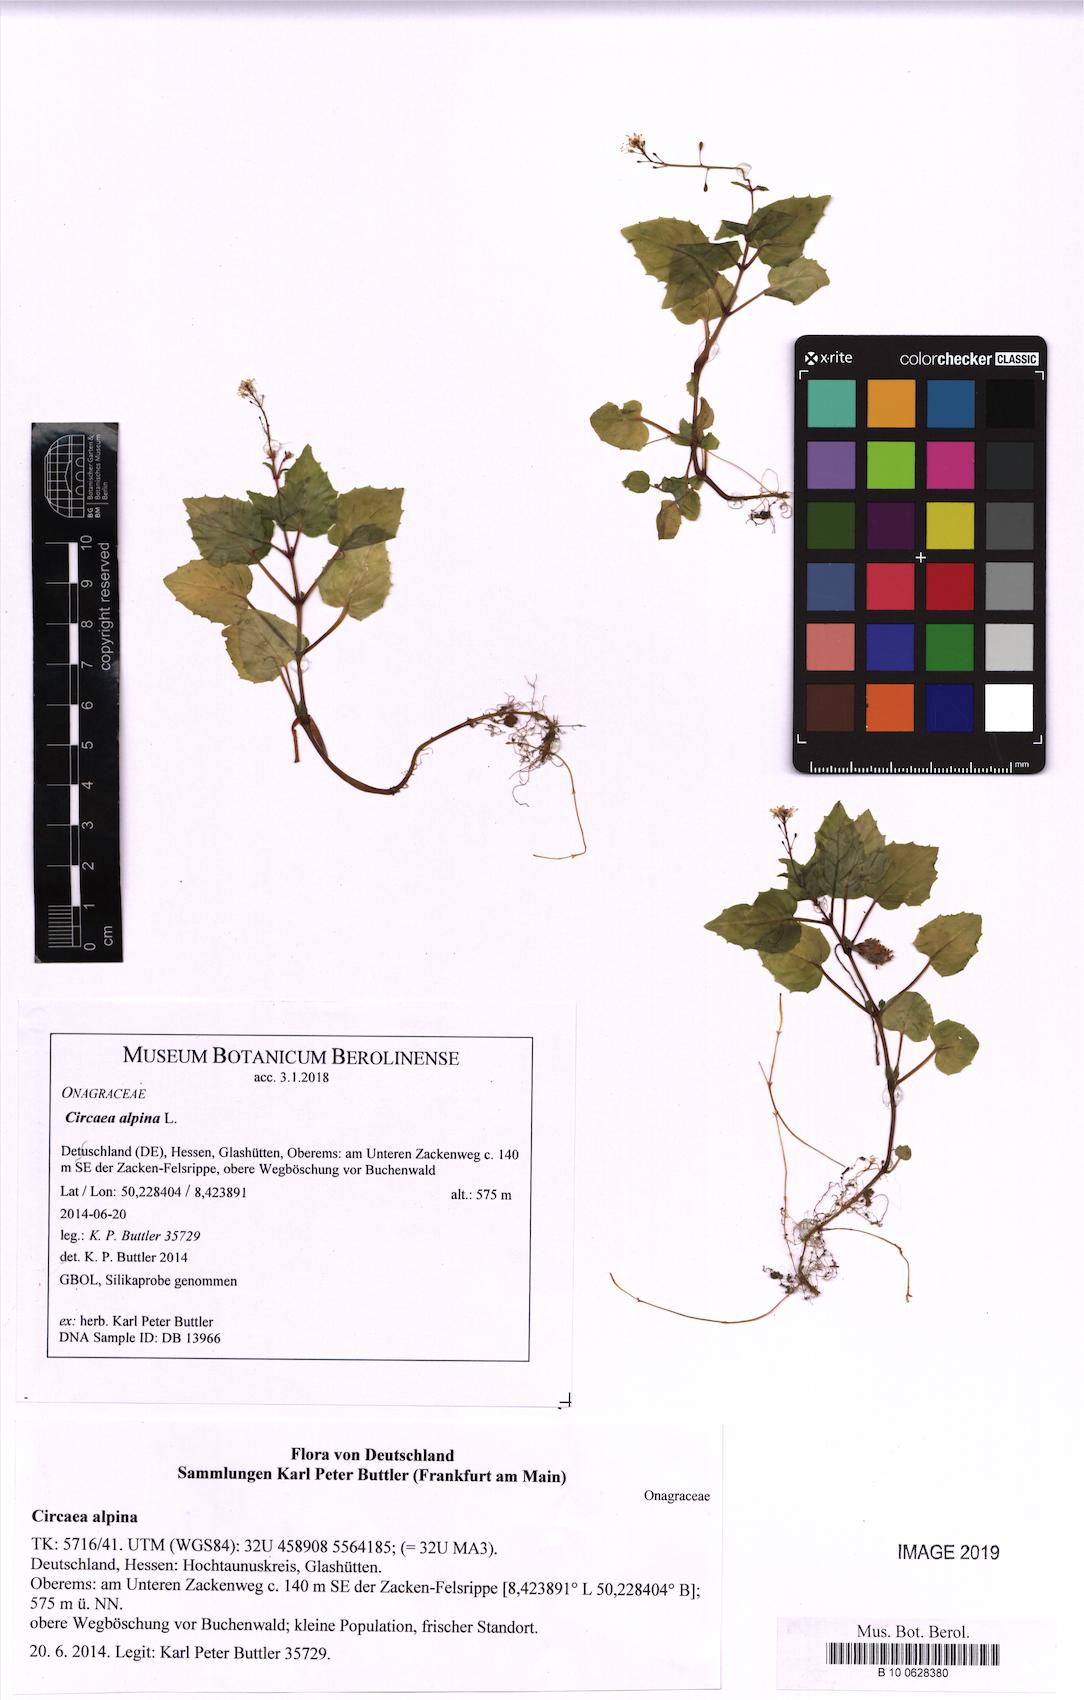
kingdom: Plantae
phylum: Tracheophyta
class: Magnoliopsida
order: Myrtales
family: Onagraceae
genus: Circaea
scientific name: Circaea alpina
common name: Alpine enchanter's-nightshade
